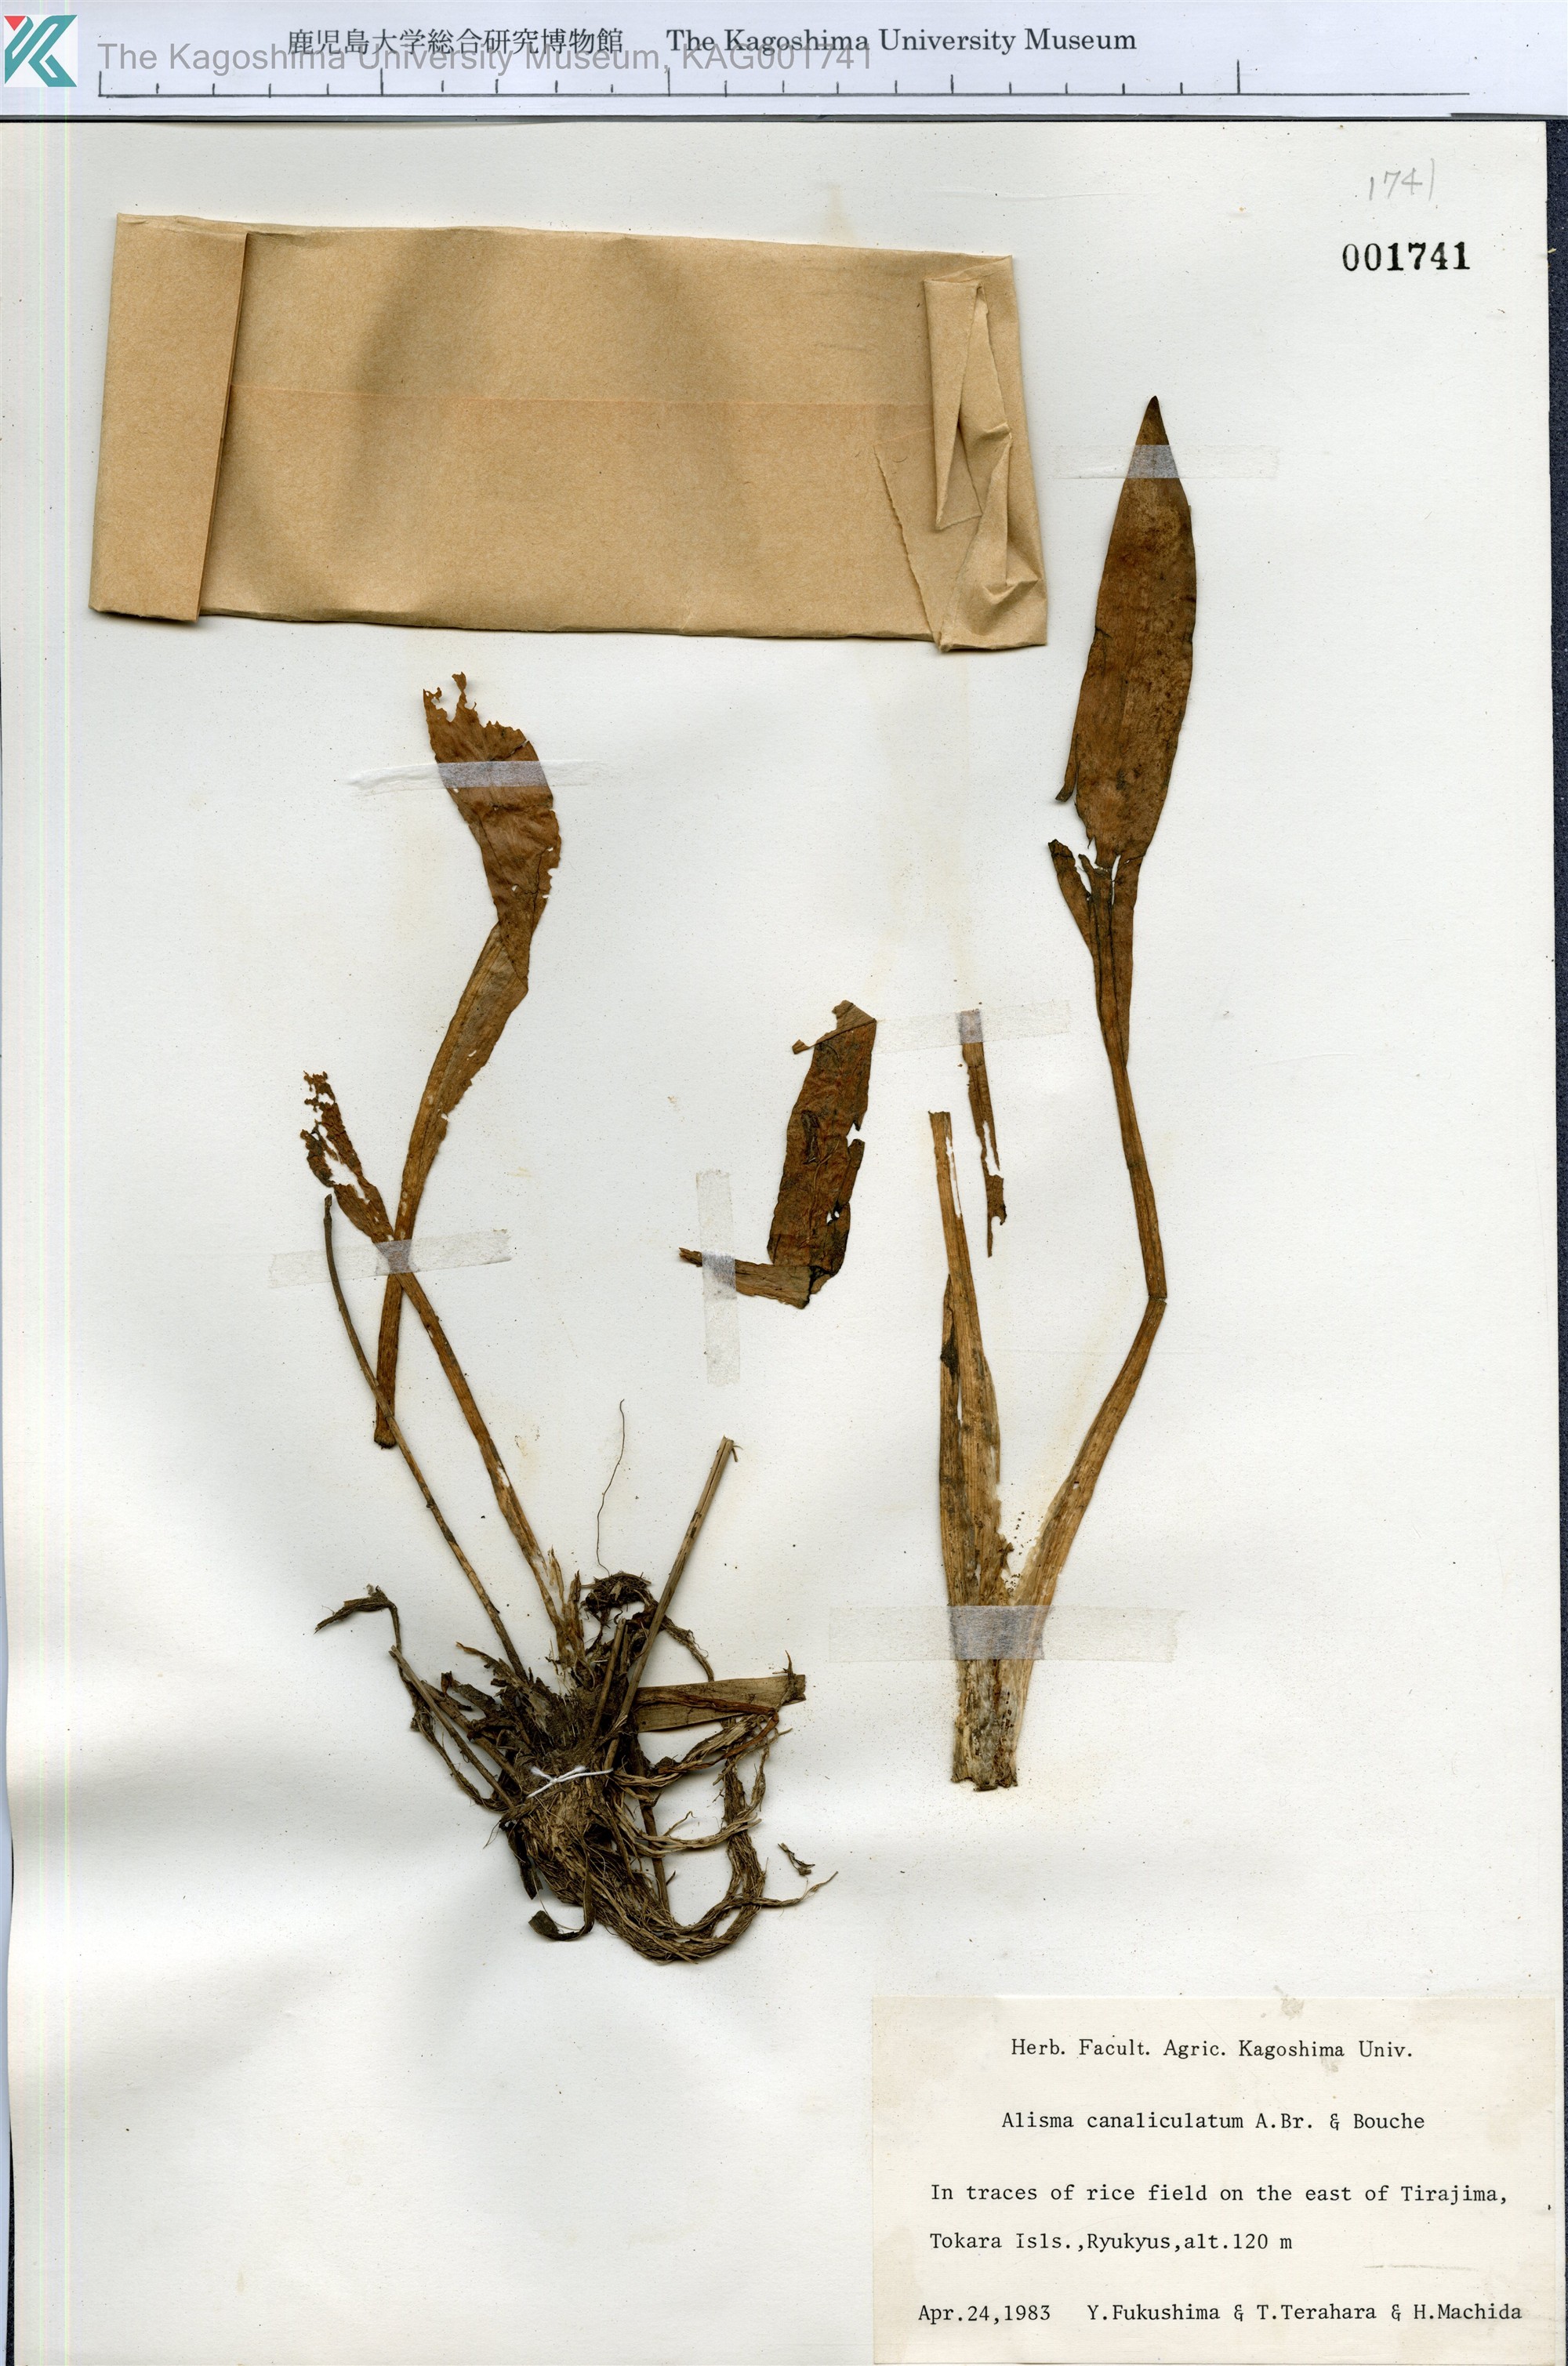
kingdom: Plantae
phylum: Tracheophyta
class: Liliopsida
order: Alismatales
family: Alismataceae
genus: Alisma
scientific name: Alisma canaliculatum
